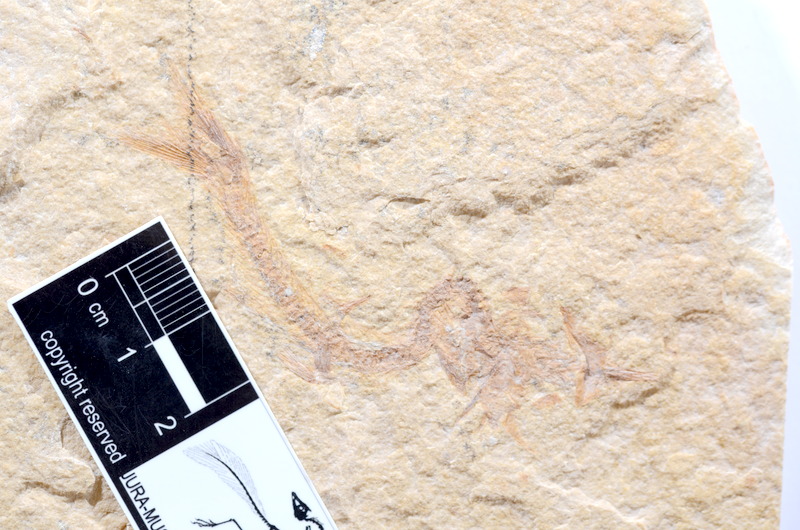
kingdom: Animalia
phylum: Chordata
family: Ascalaboidae
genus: Tharsis
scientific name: Tharsis dubius
